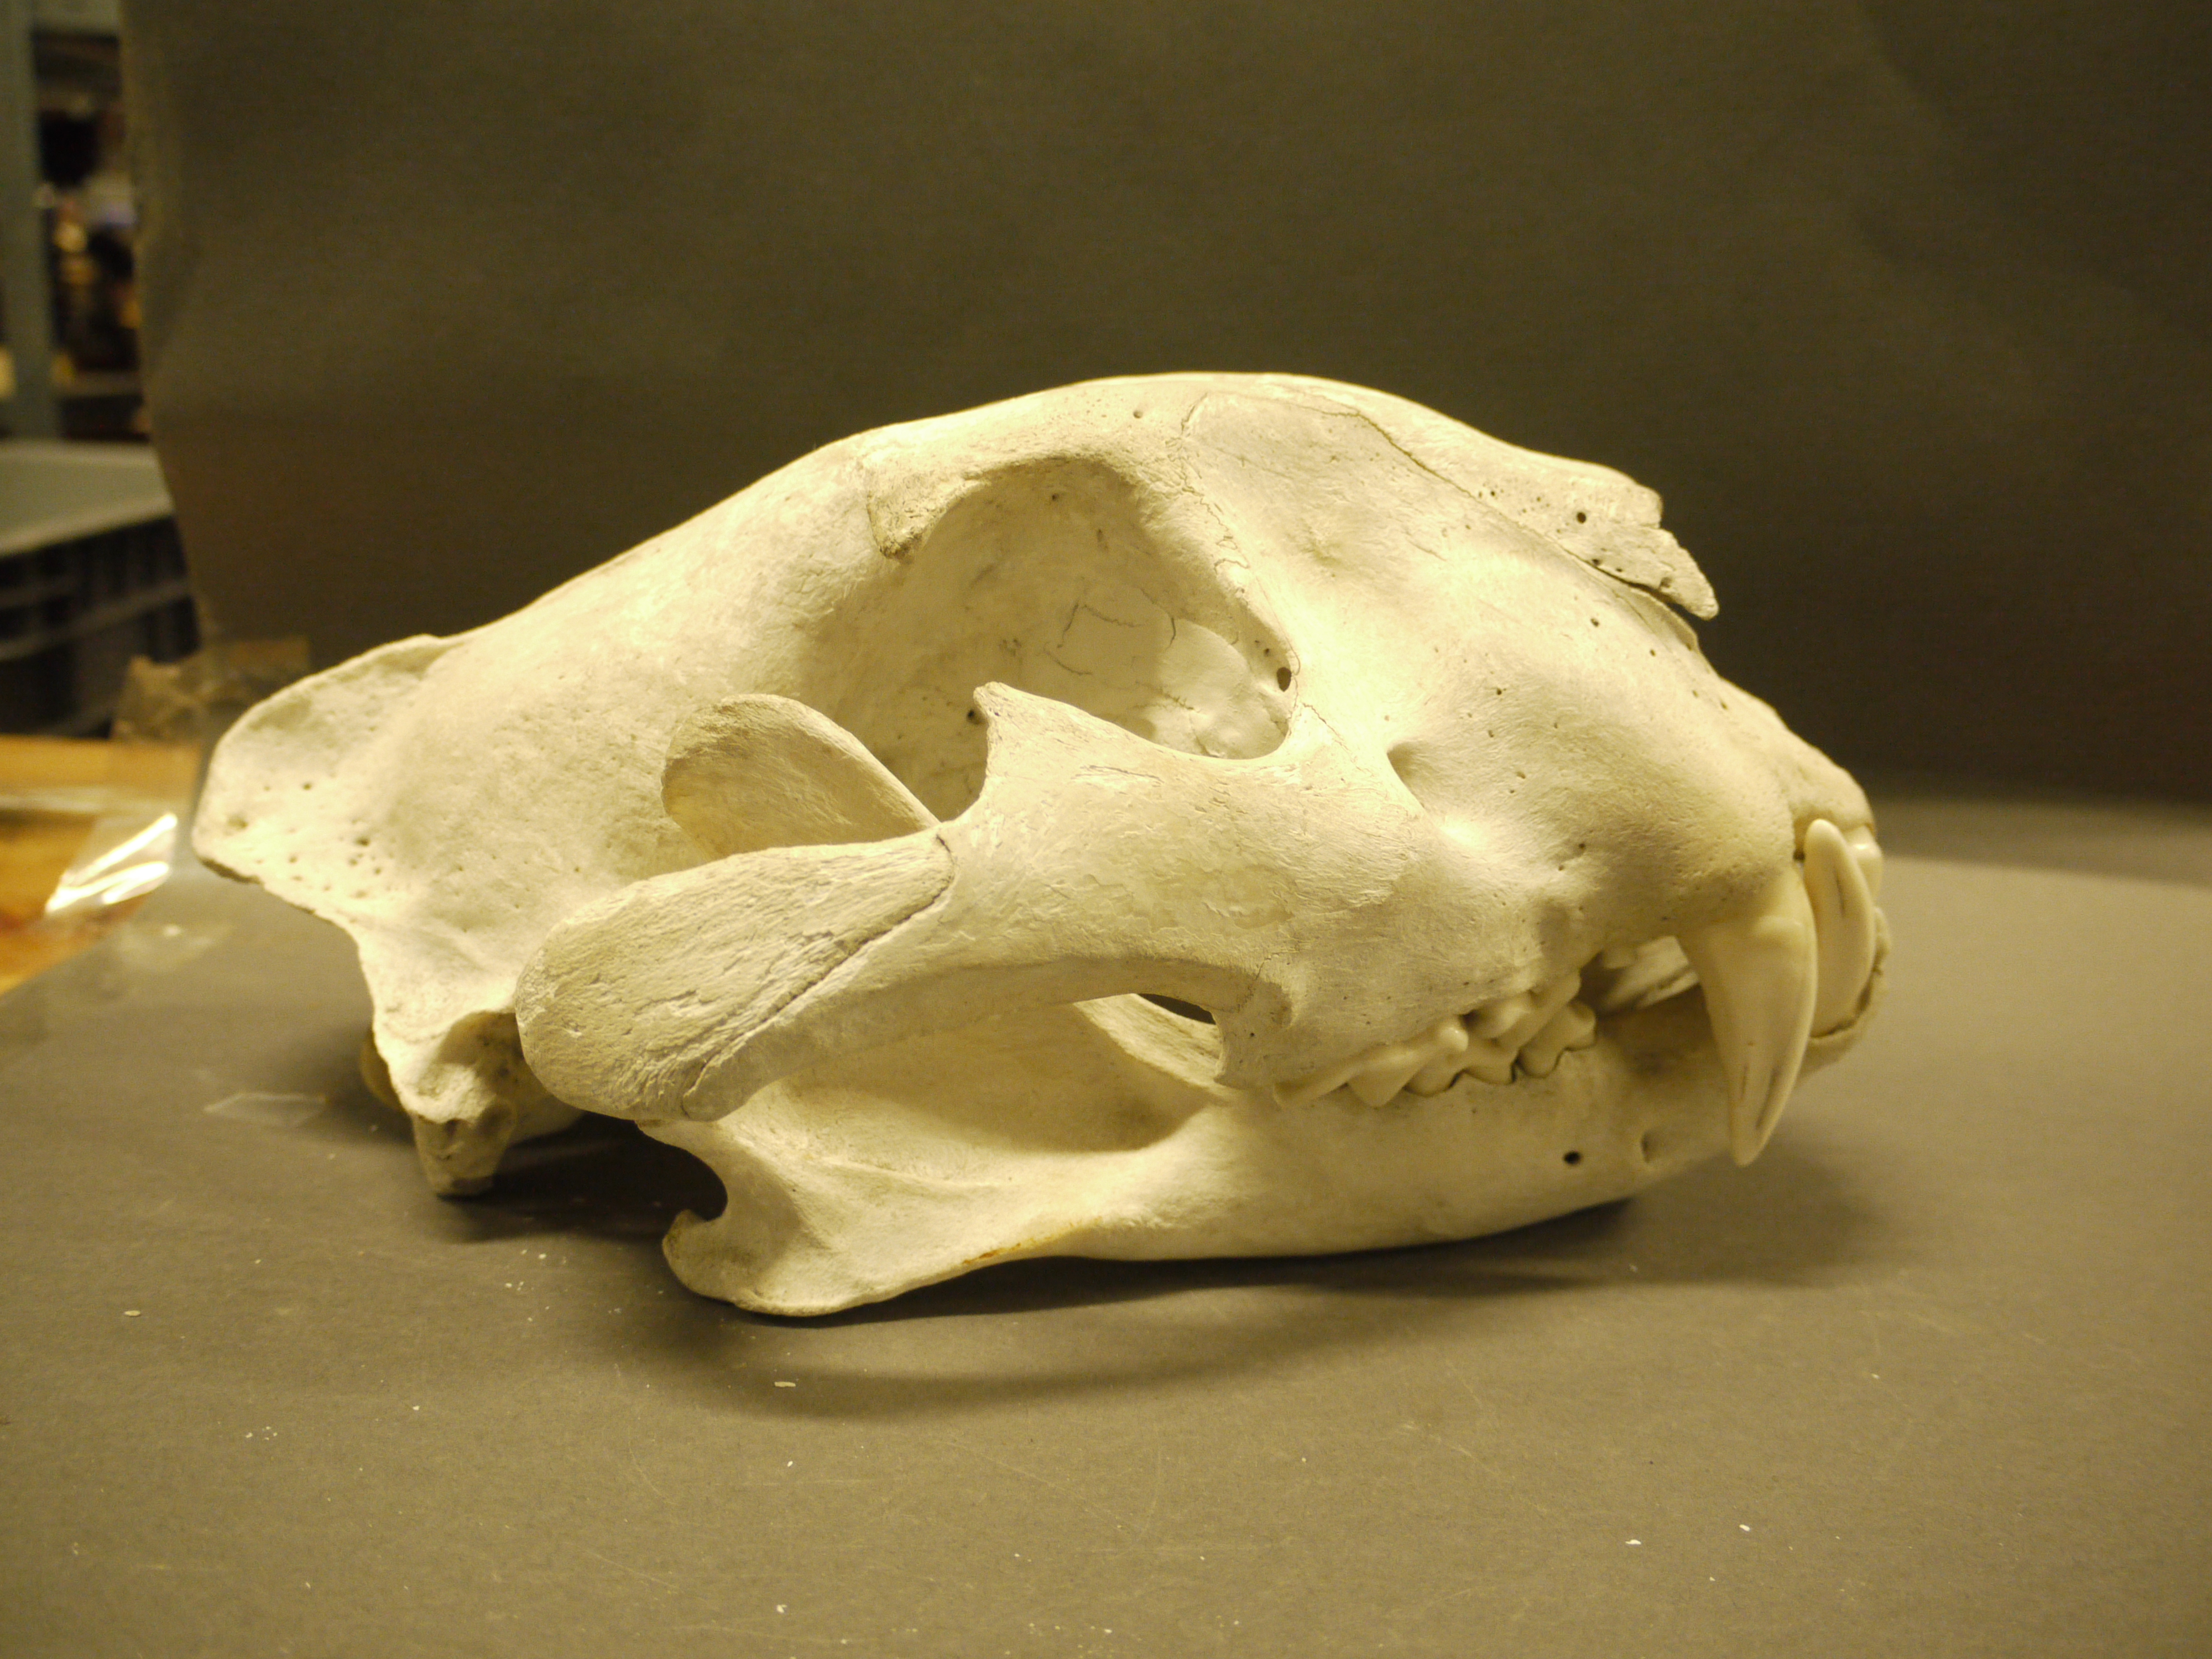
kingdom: Animalia
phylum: Chordata
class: Mammalia
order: Carnivora
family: Felidae
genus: Panthera
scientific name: Panthera leo
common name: Lion
